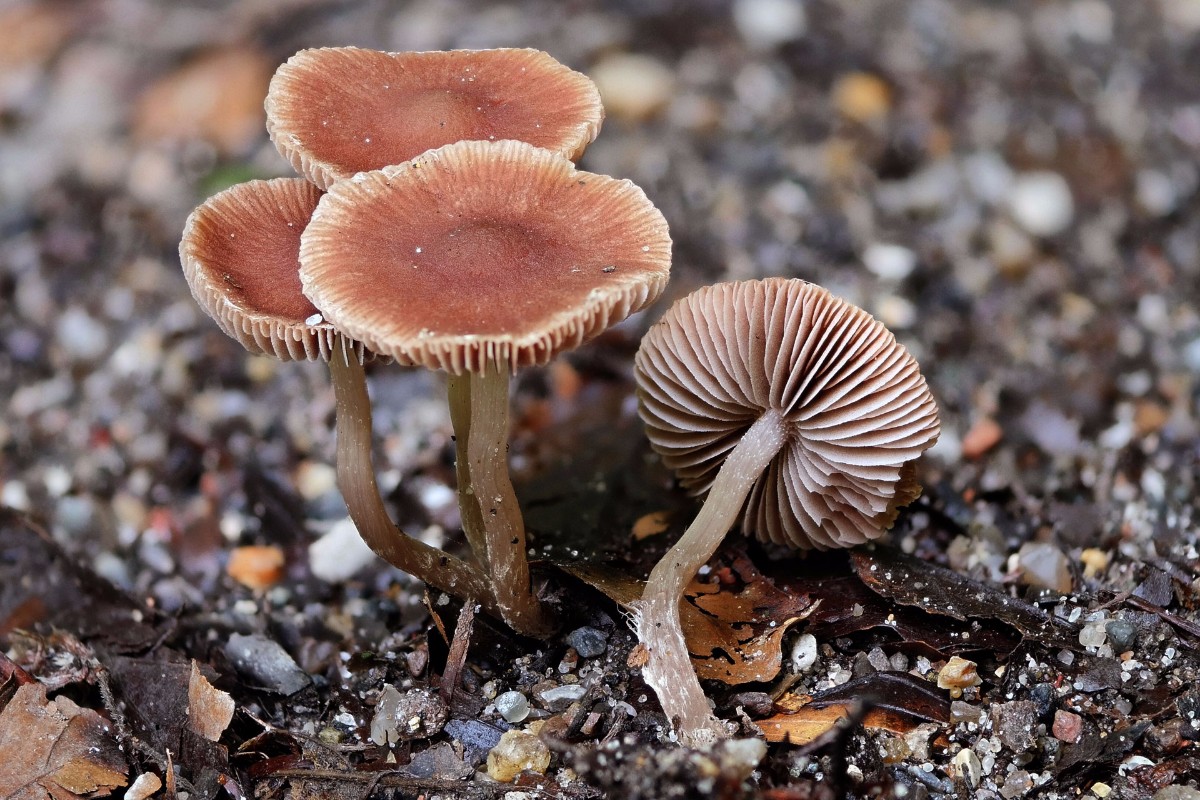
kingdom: Fungi
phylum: Basidiomycota
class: Agaricomycetes
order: Agaricales
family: Psathyrellaceae
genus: Psathyrella
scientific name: Psathyrella
